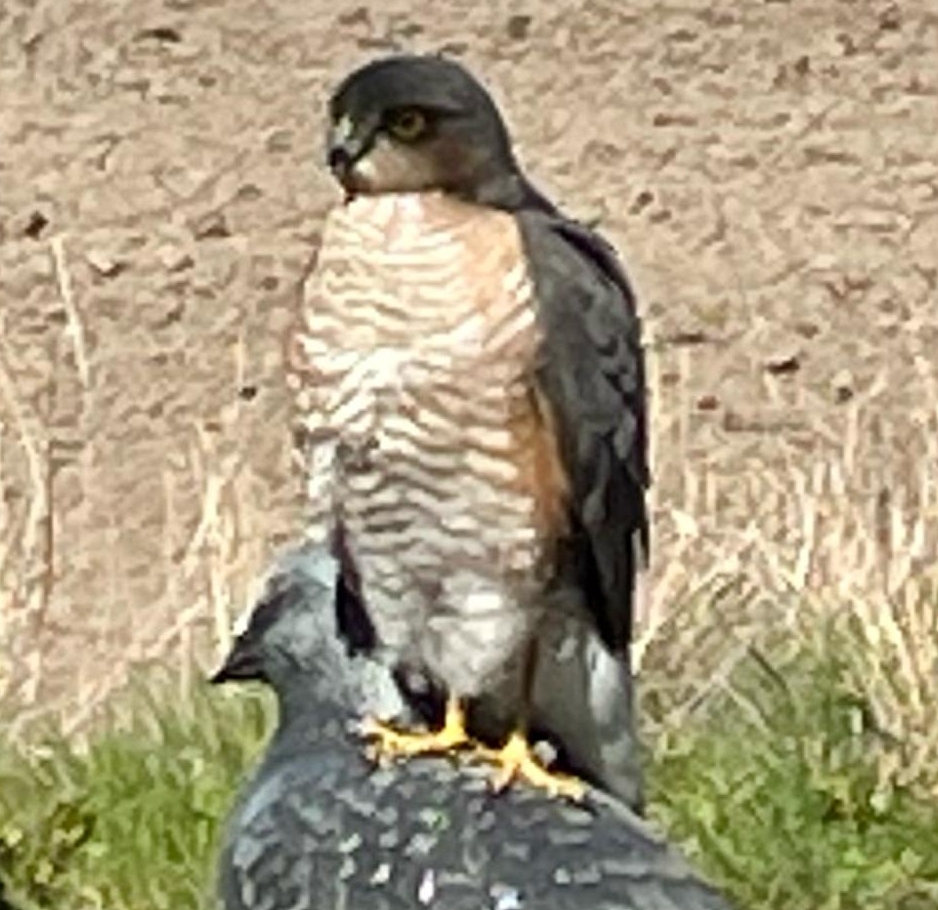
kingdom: Animalia
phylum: Chordata
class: Aves
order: Accipitriformes
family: Accipitridae
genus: Accipiter
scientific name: Accipiter nisus
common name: Spurvehøg
